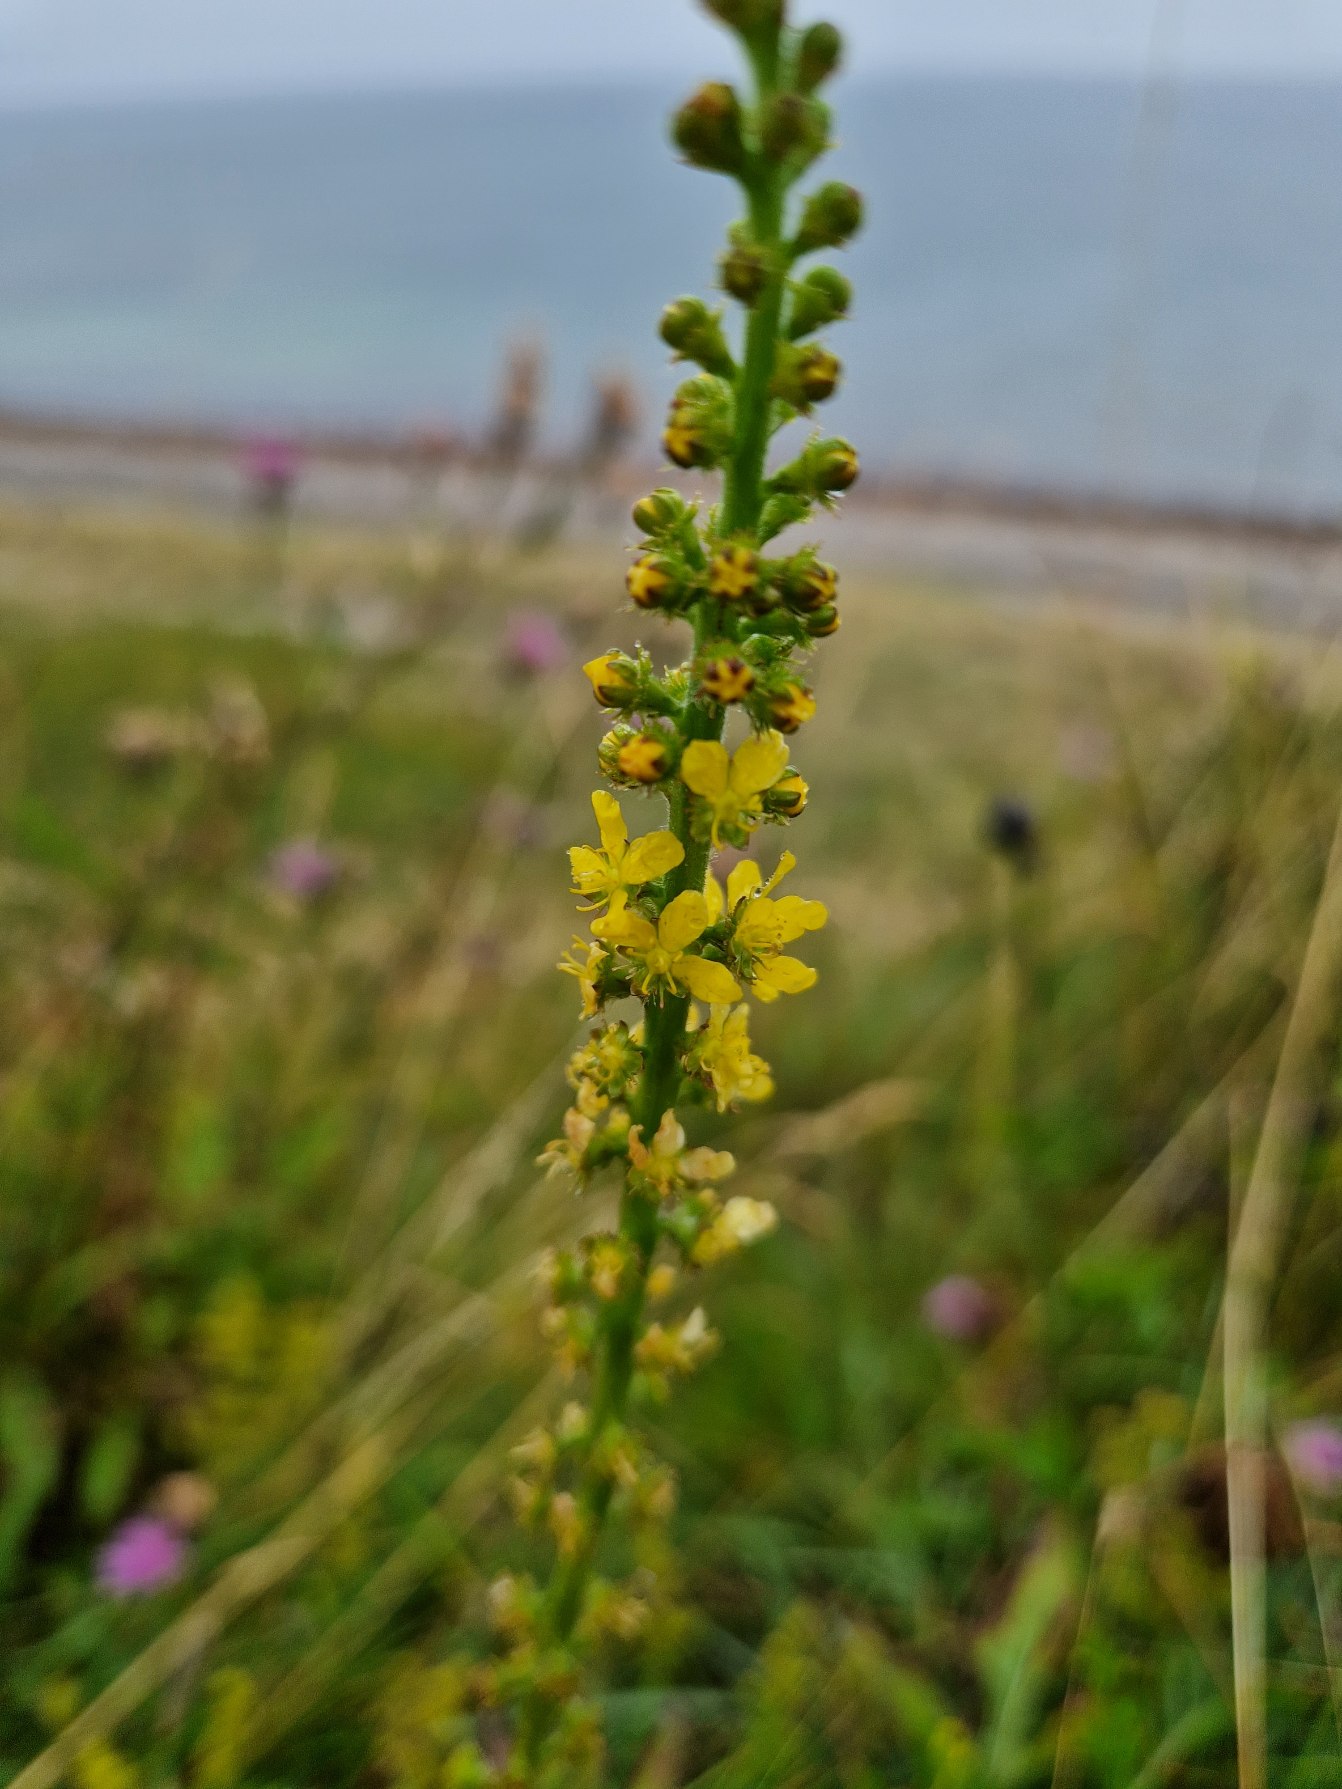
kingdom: Plantae
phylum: Tracheophyta
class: Magnoliopsida
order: Rosales
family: Rosaceae
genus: Agrimonia
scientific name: Agrimonia eupatoria
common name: Almindelig agermåne
